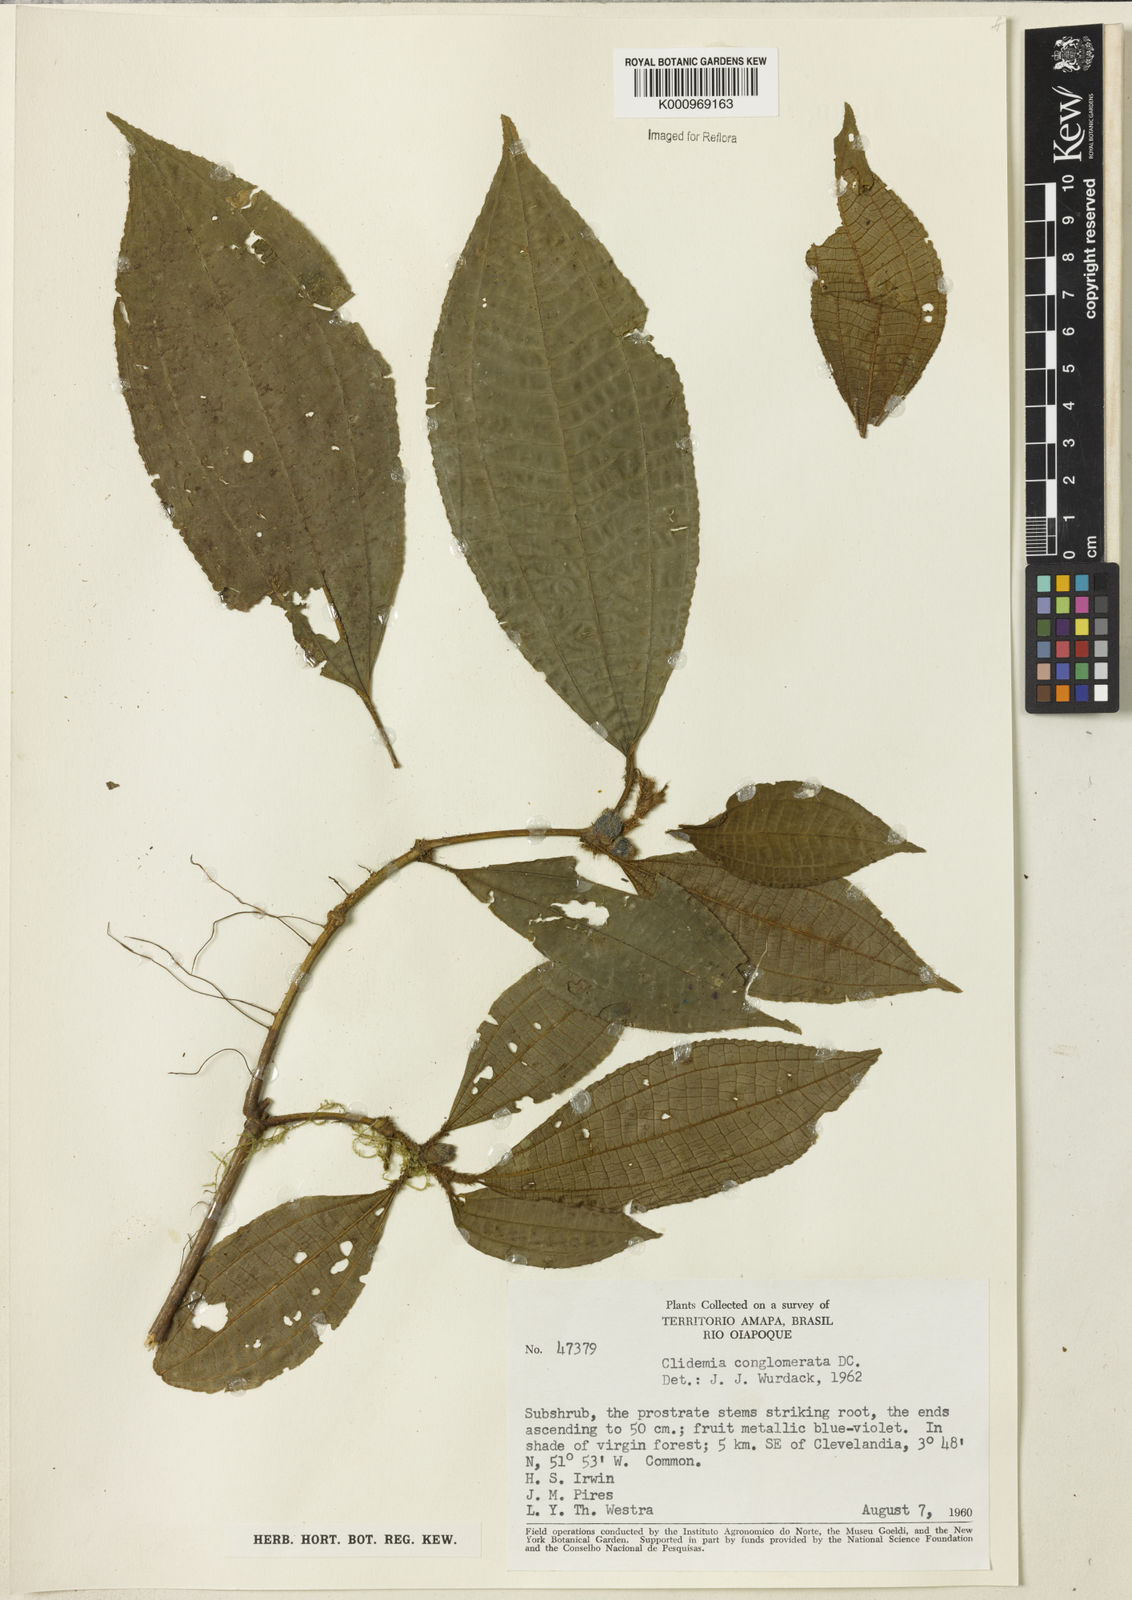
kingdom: Plantae
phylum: Tracheophyta
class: Magnoliopsida
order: Myrtales
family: Melastomataceae
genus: Miconia
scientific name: Miconia conglomerata
